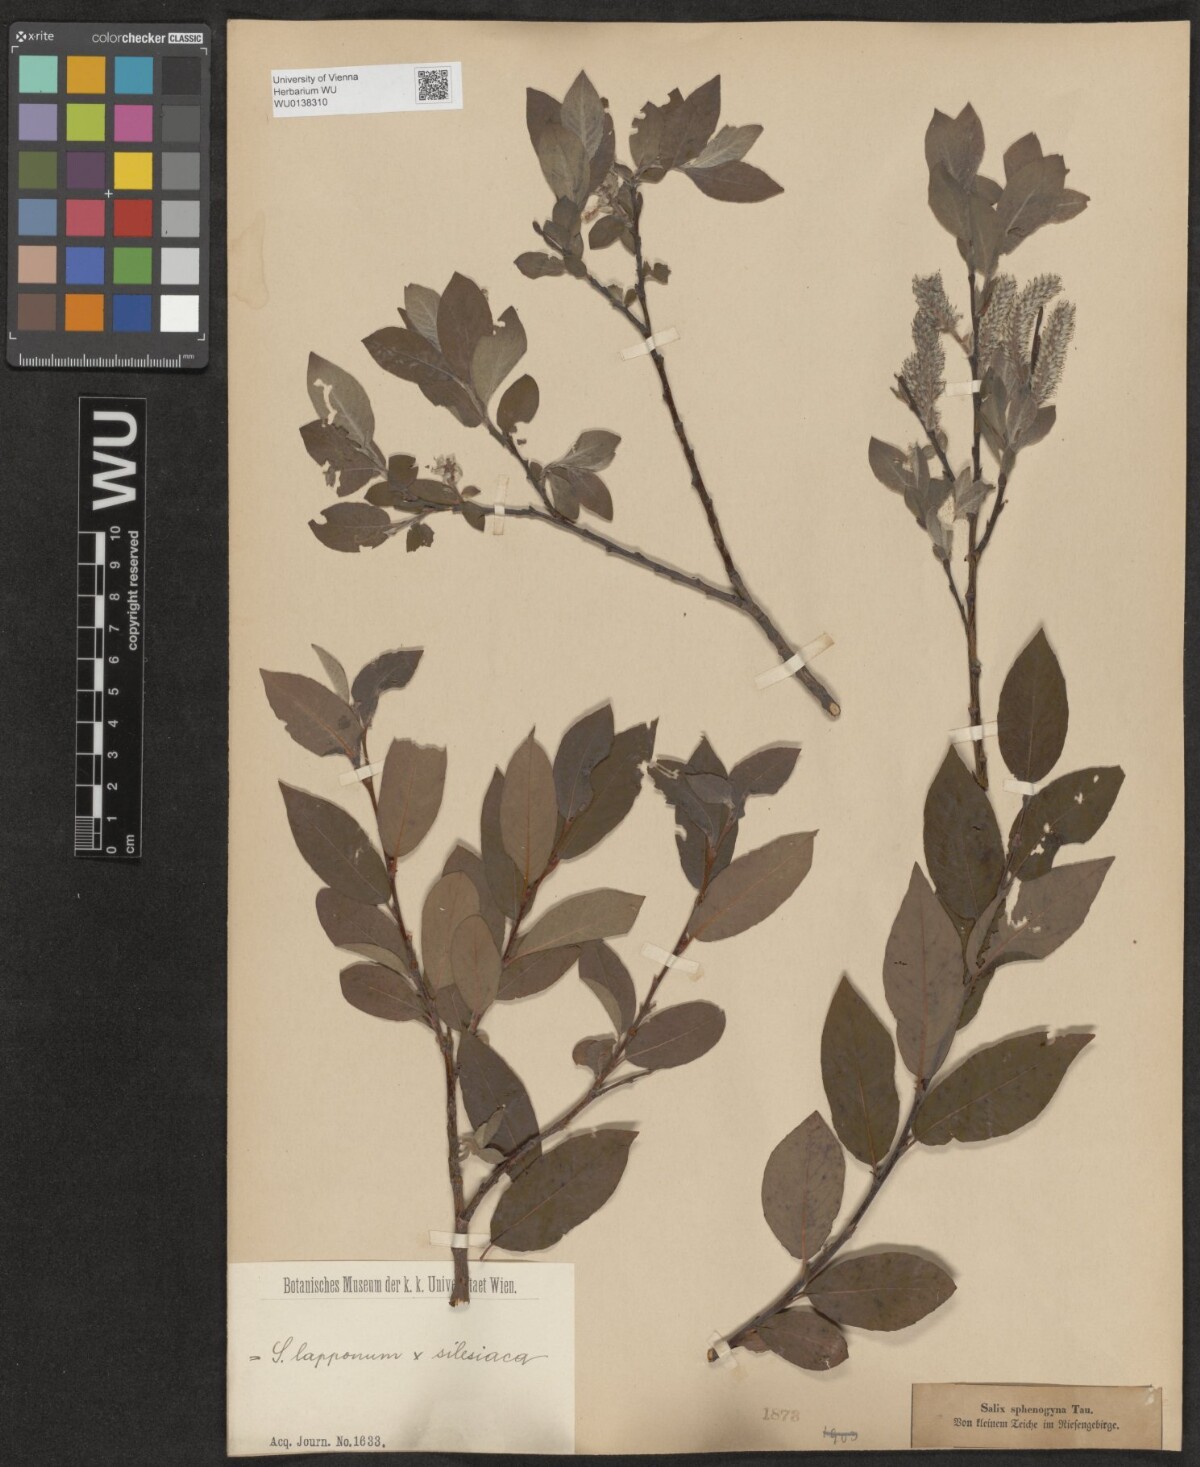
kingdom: Plantae
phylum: Tracheophyta
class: Magnoliopsida
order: Malpighiales
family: Salicaceae
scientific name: Salicaceae
